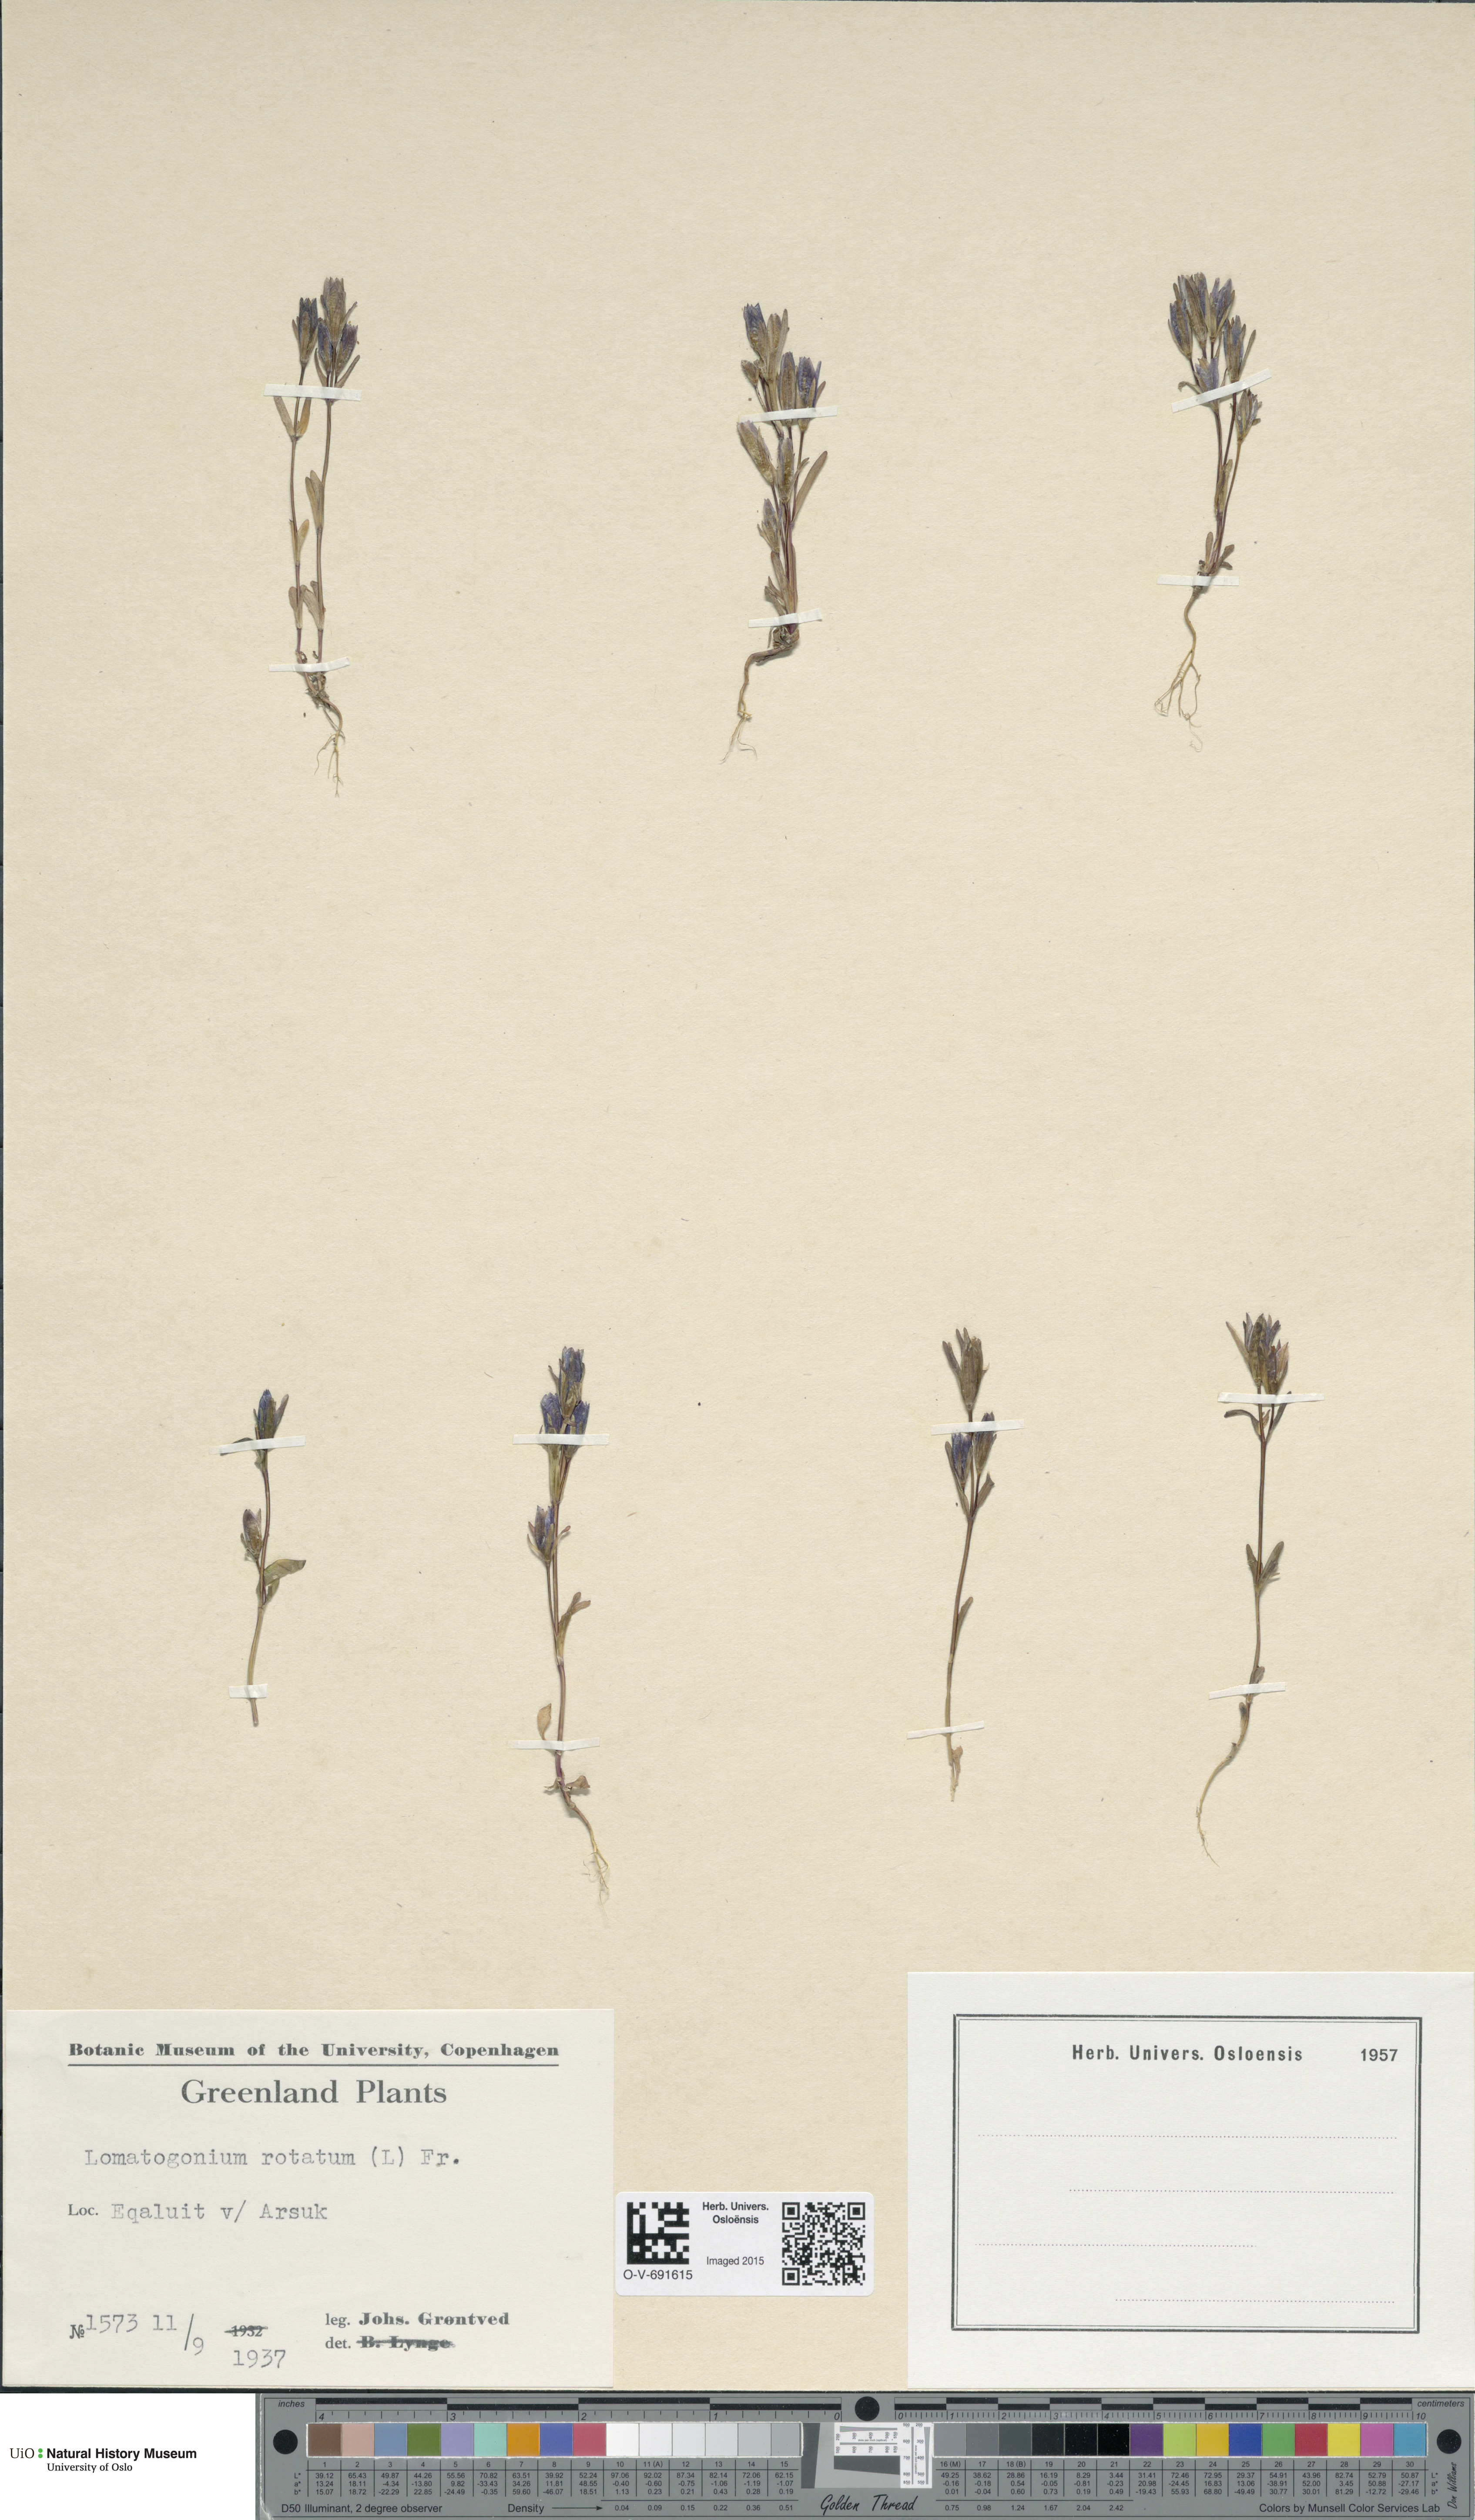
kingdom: Plantae
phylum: Tracheophyta
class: Magnoliopsida
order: Gentianales
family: Gentianaceae
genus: Lomatogonium
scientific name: Lomatogonium rotatum
